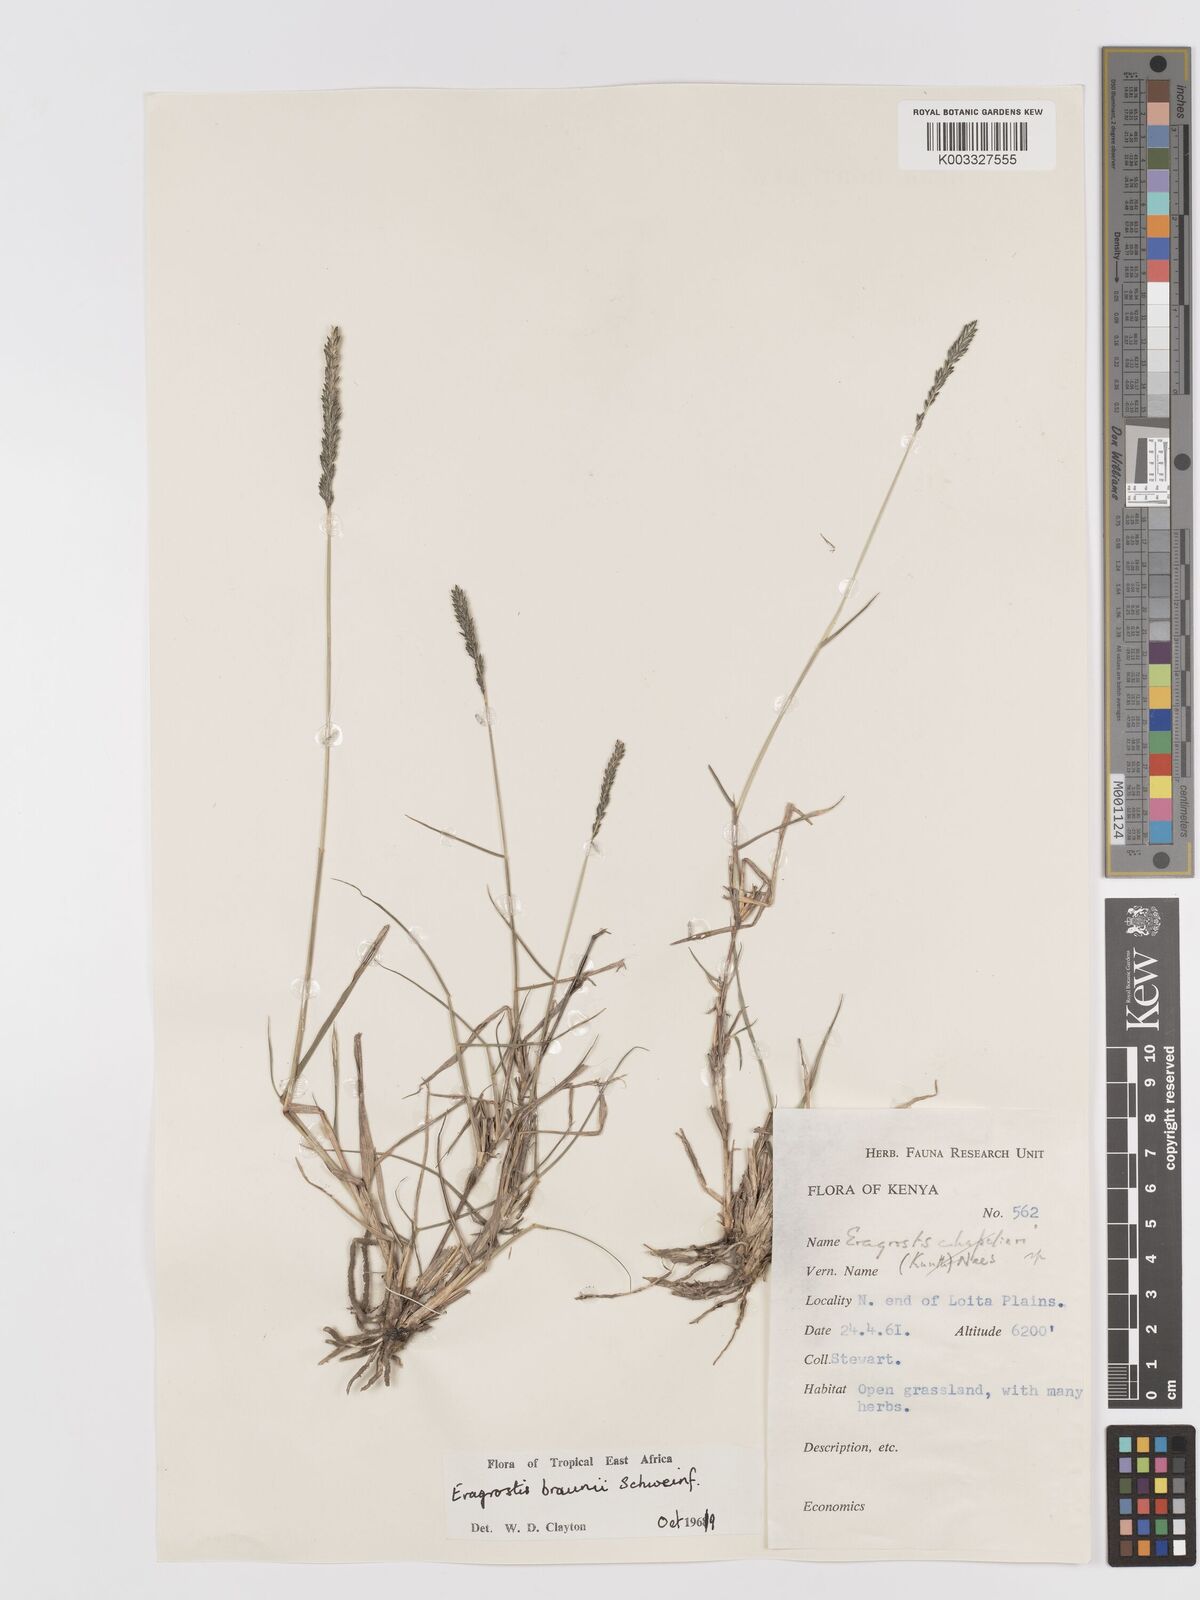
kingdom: Plantae
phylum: Tracheophyta
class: Liliopsida
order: Poales
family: Poaceae
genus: Eragrostis
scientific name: Eragrostis braunii
